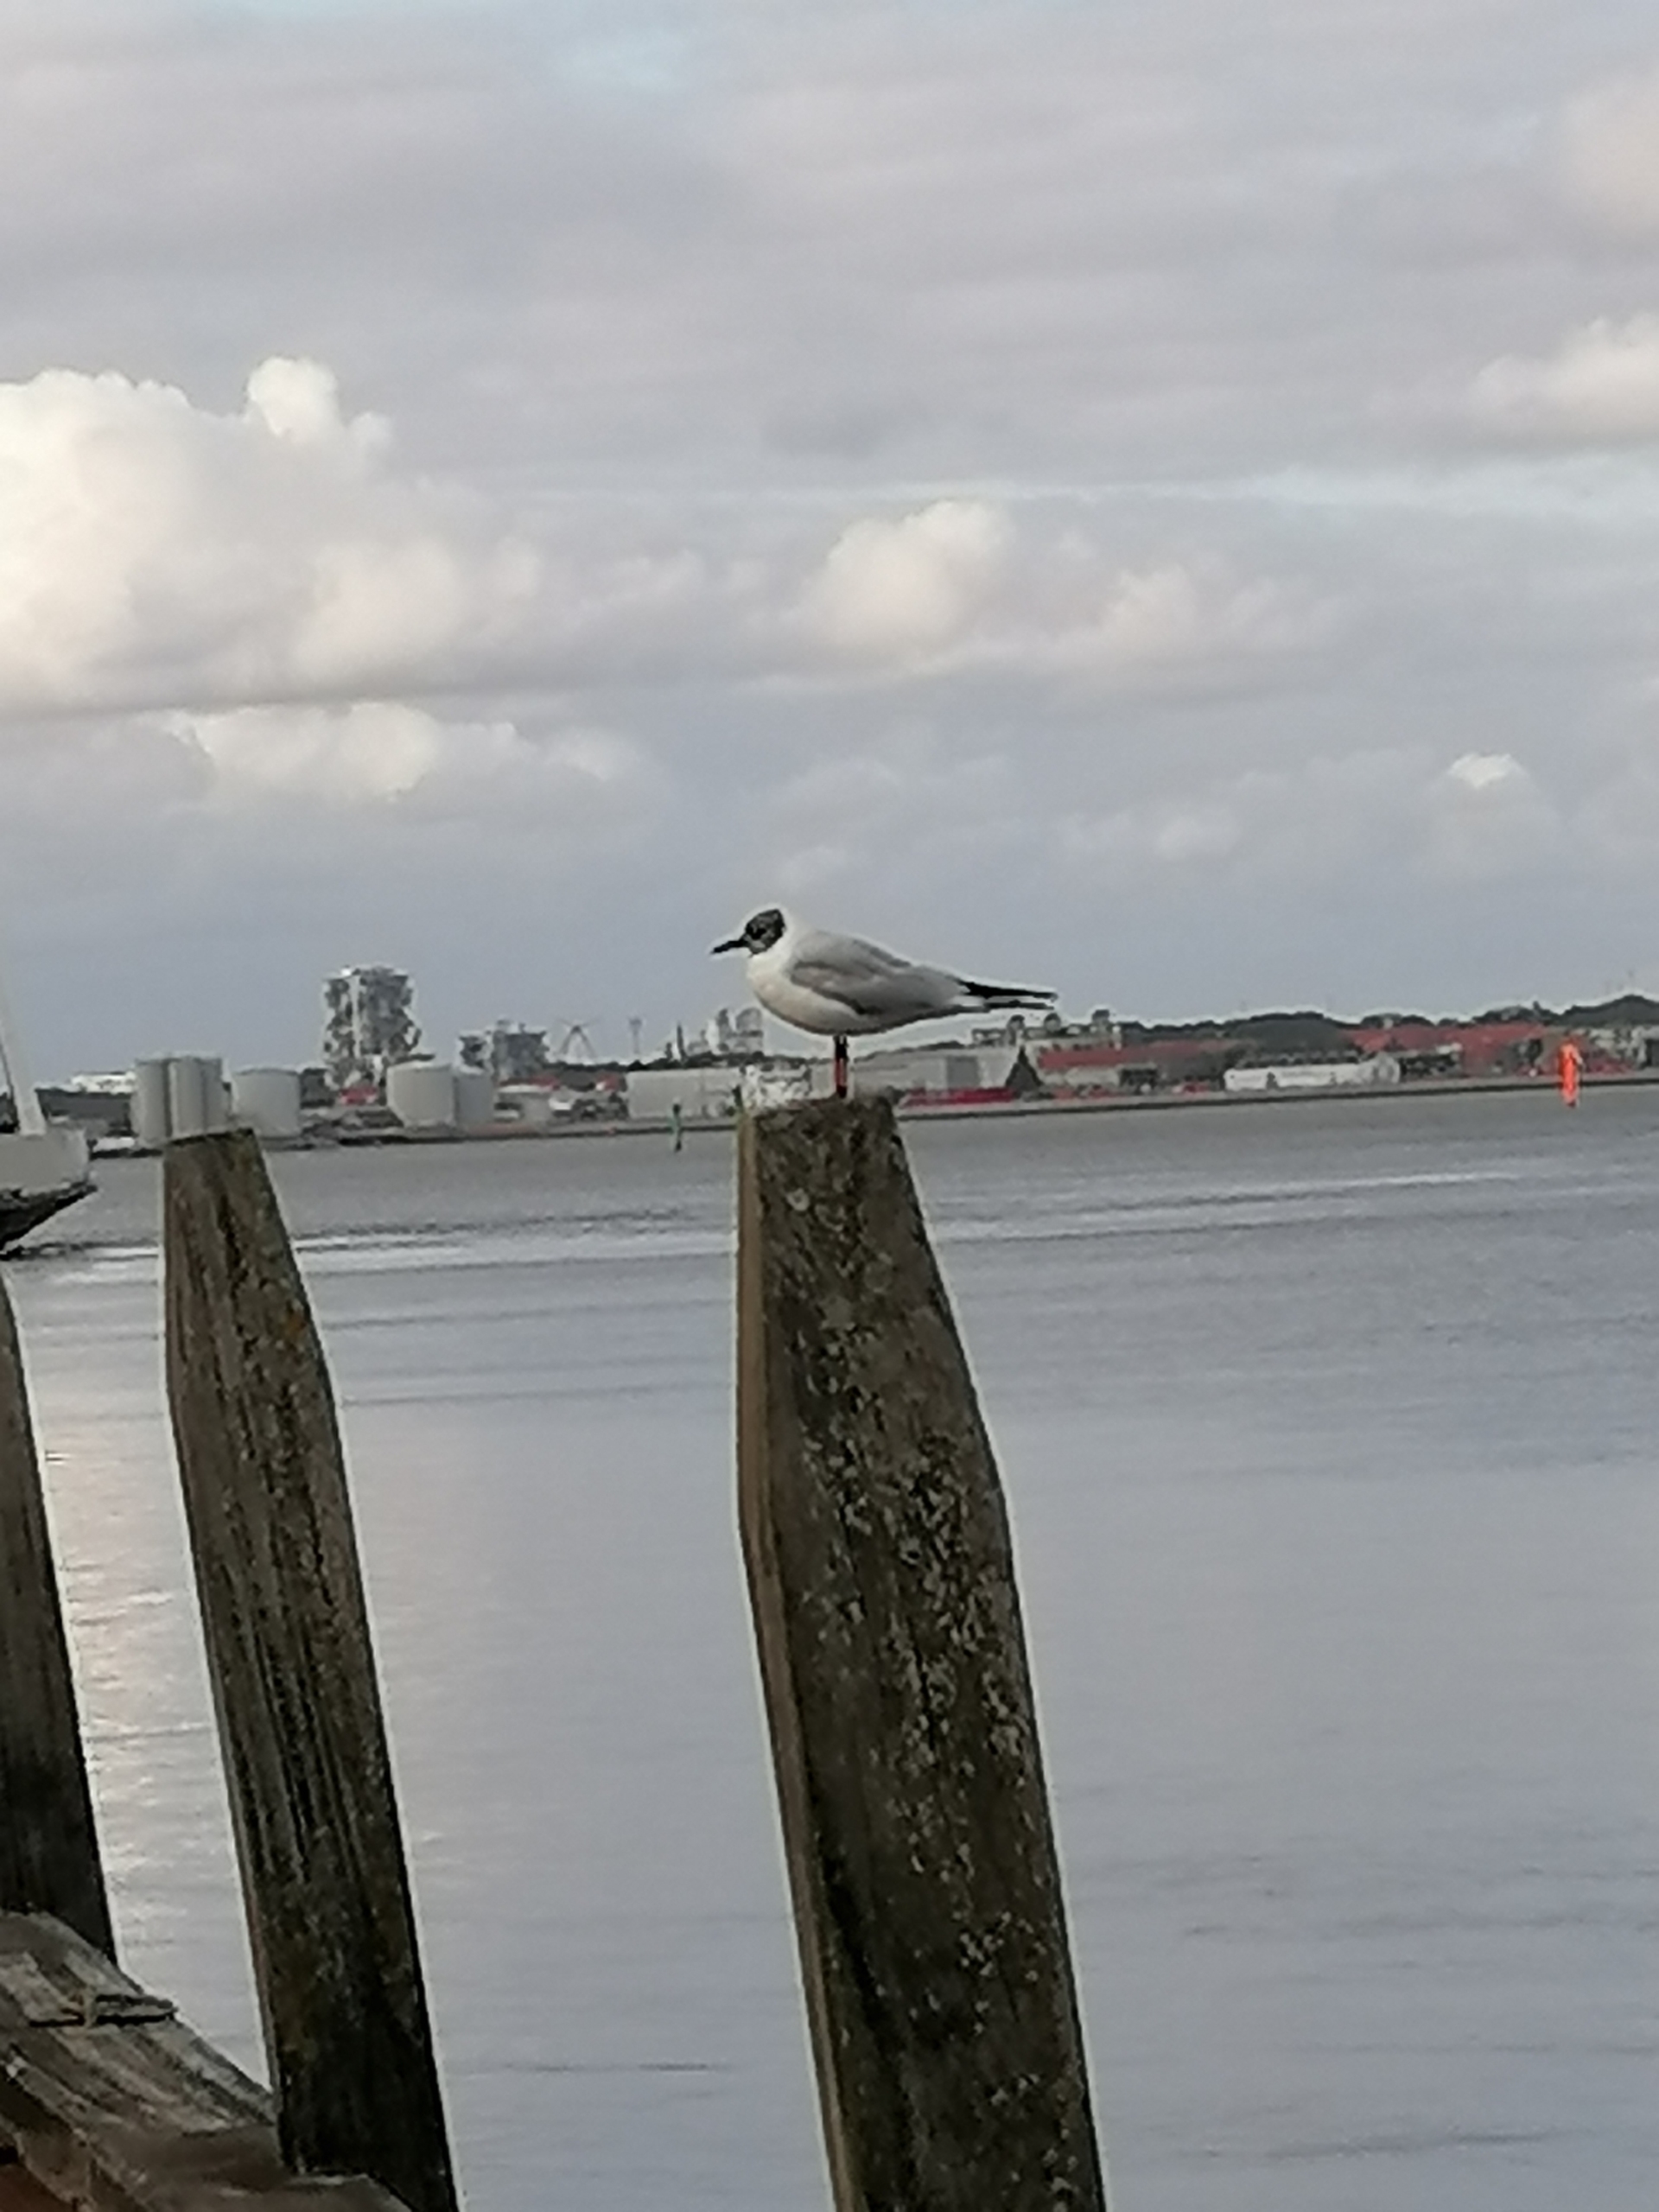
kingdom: Animalia
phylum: Chordata
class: Aves
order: Charadriiformes
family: Laridae
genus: Chroicocephalus
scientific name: Chroicocephalus ridibundus
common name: Hættemåge
